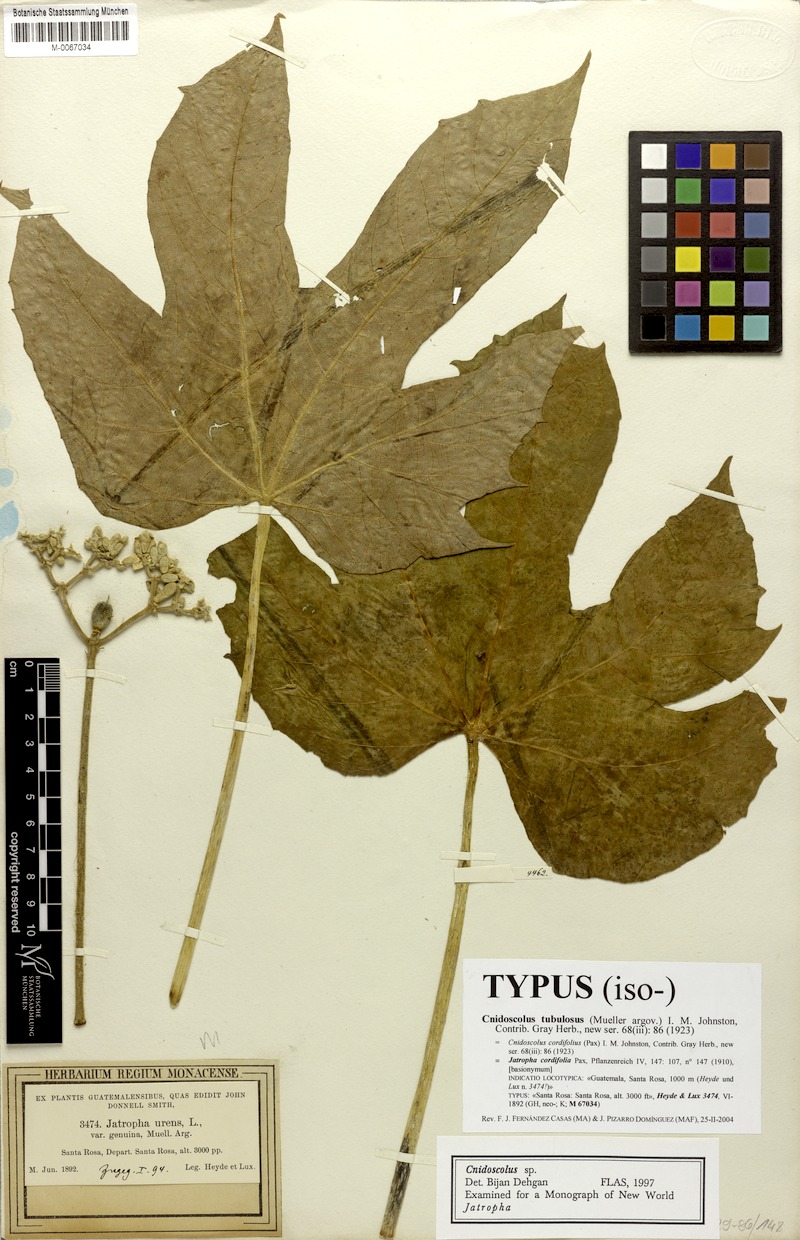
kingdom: Plantae
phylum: Tracheophyta
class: Magnoliopsida
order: Malpighiales
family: Euphorbiaceae
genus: Cnidoscolus
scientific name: Cnidoscolus tubulosus
